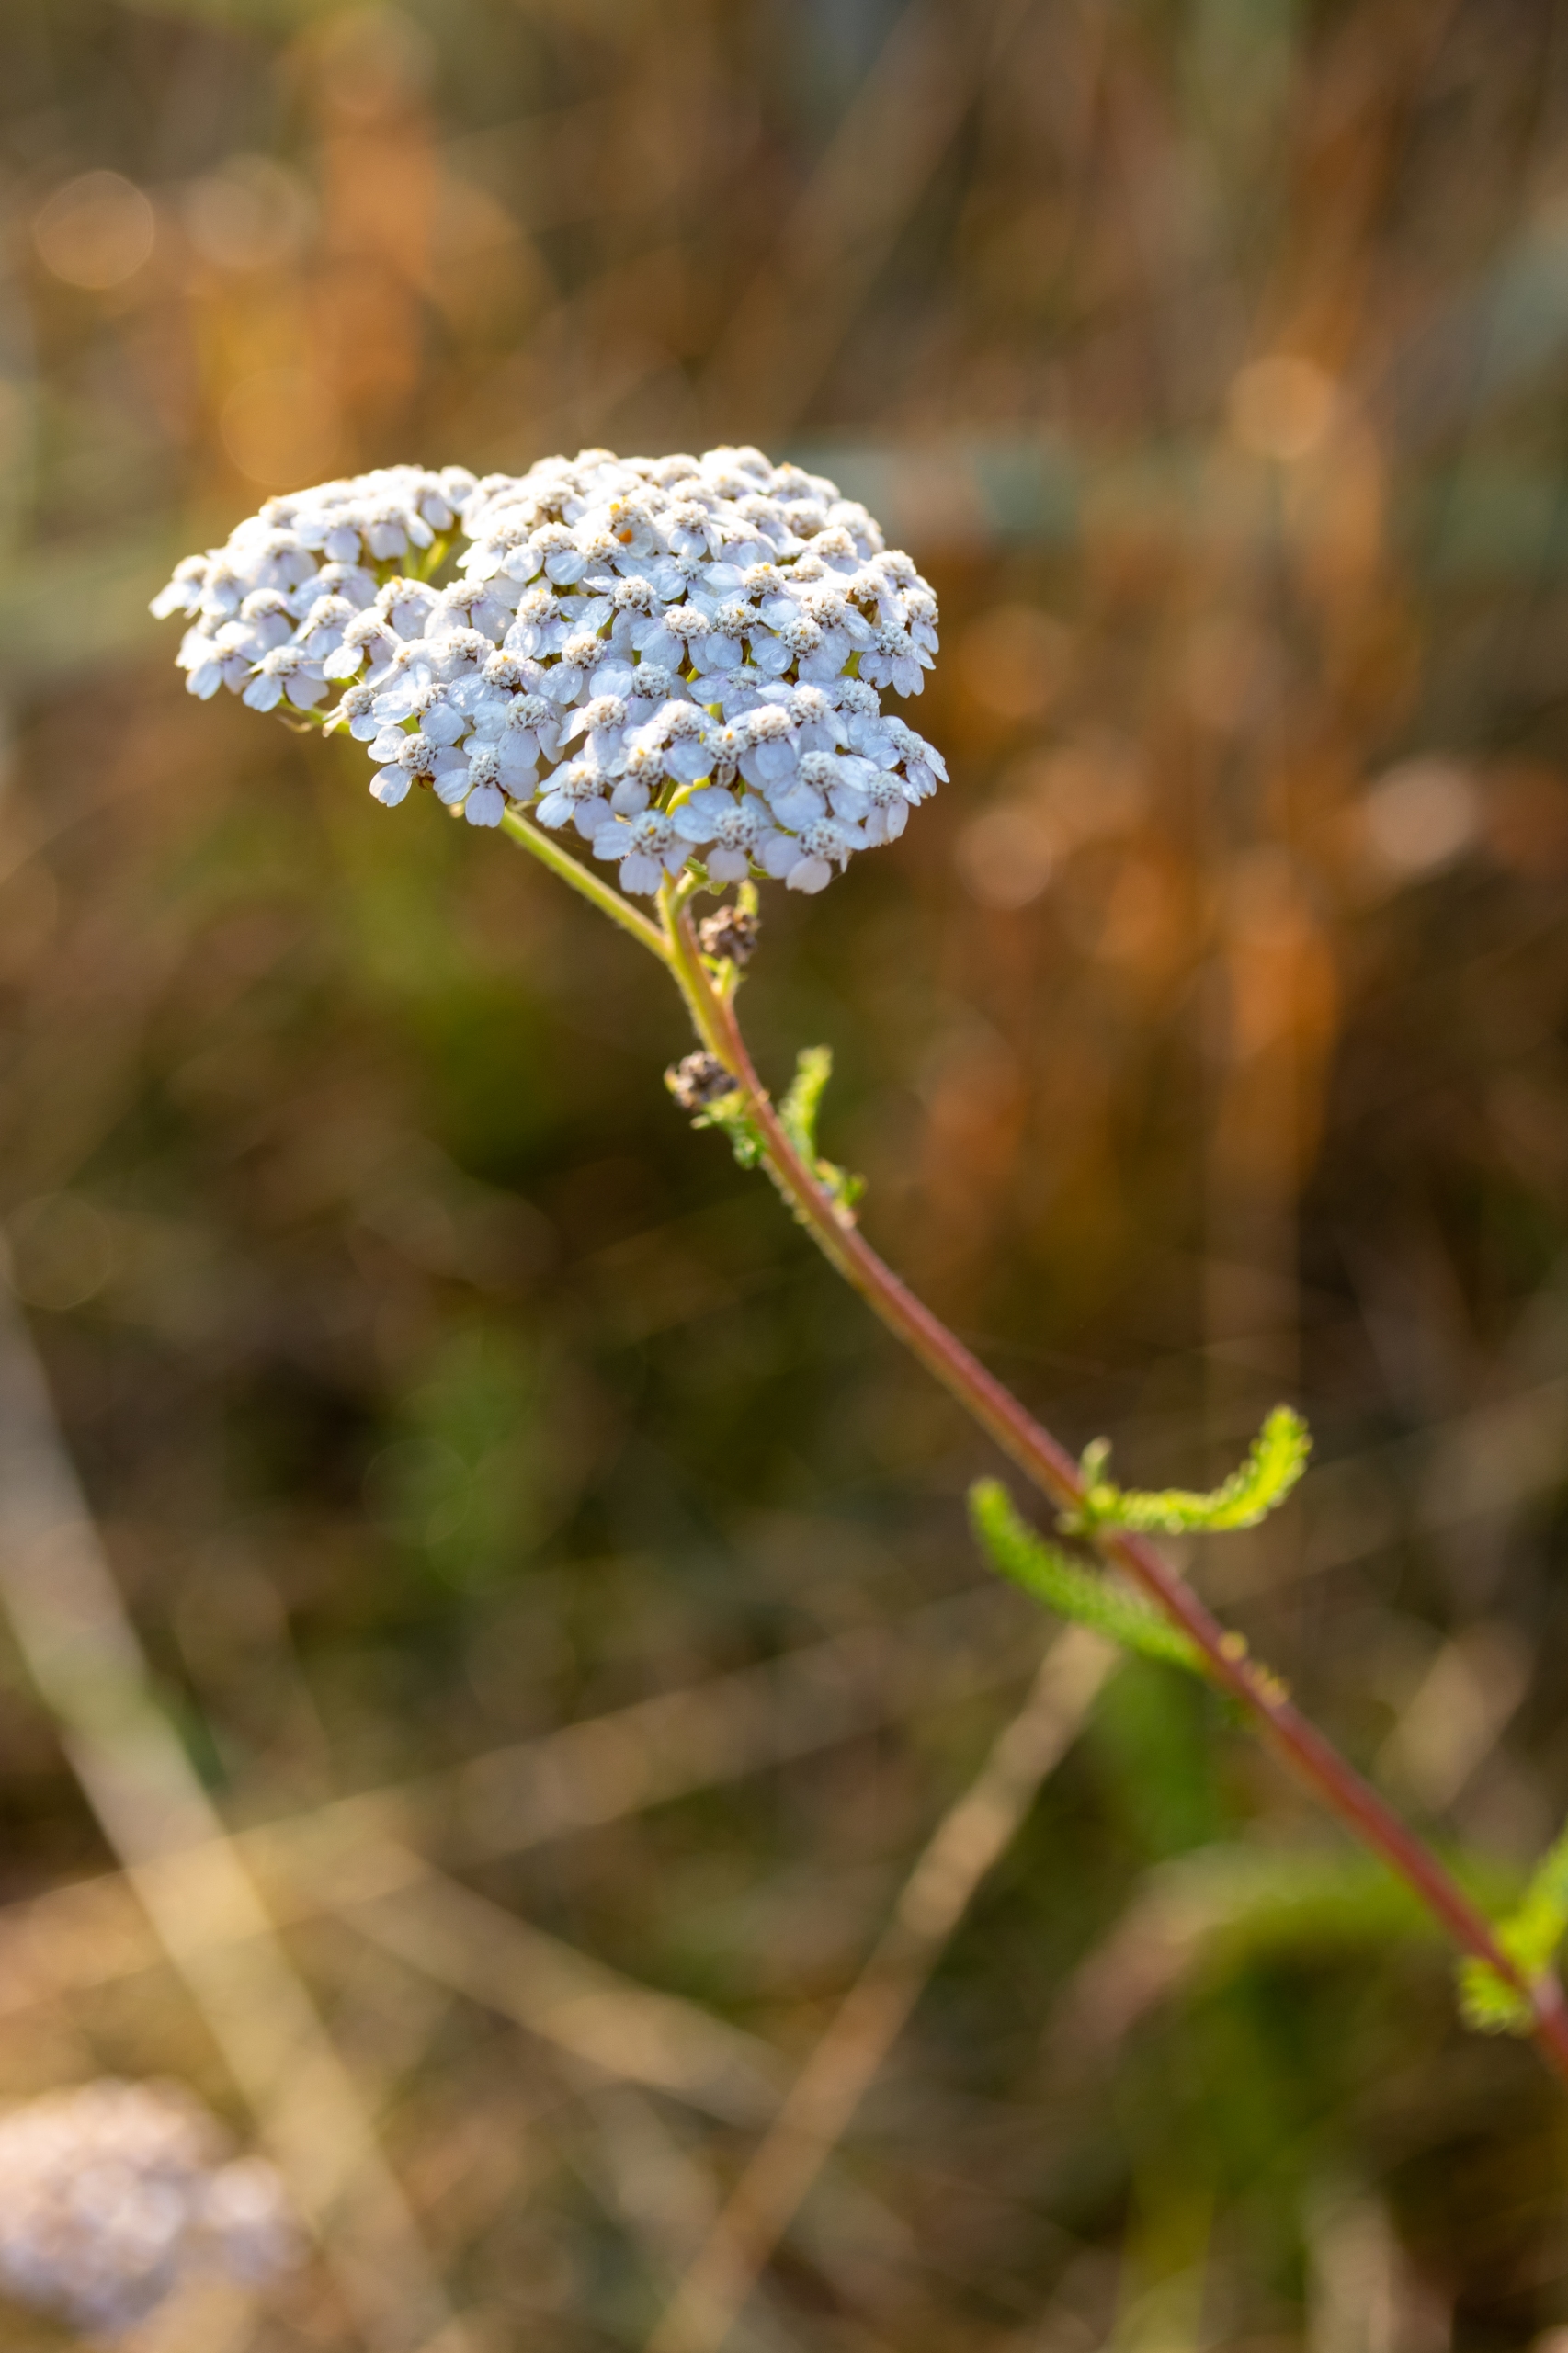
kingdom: Plantae
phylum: Tracheophyta
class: Magnoliopsida
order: Asterales
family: Asteraceae
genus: Achillea
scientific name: Achillea millefolium
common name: Almindelig røllike
